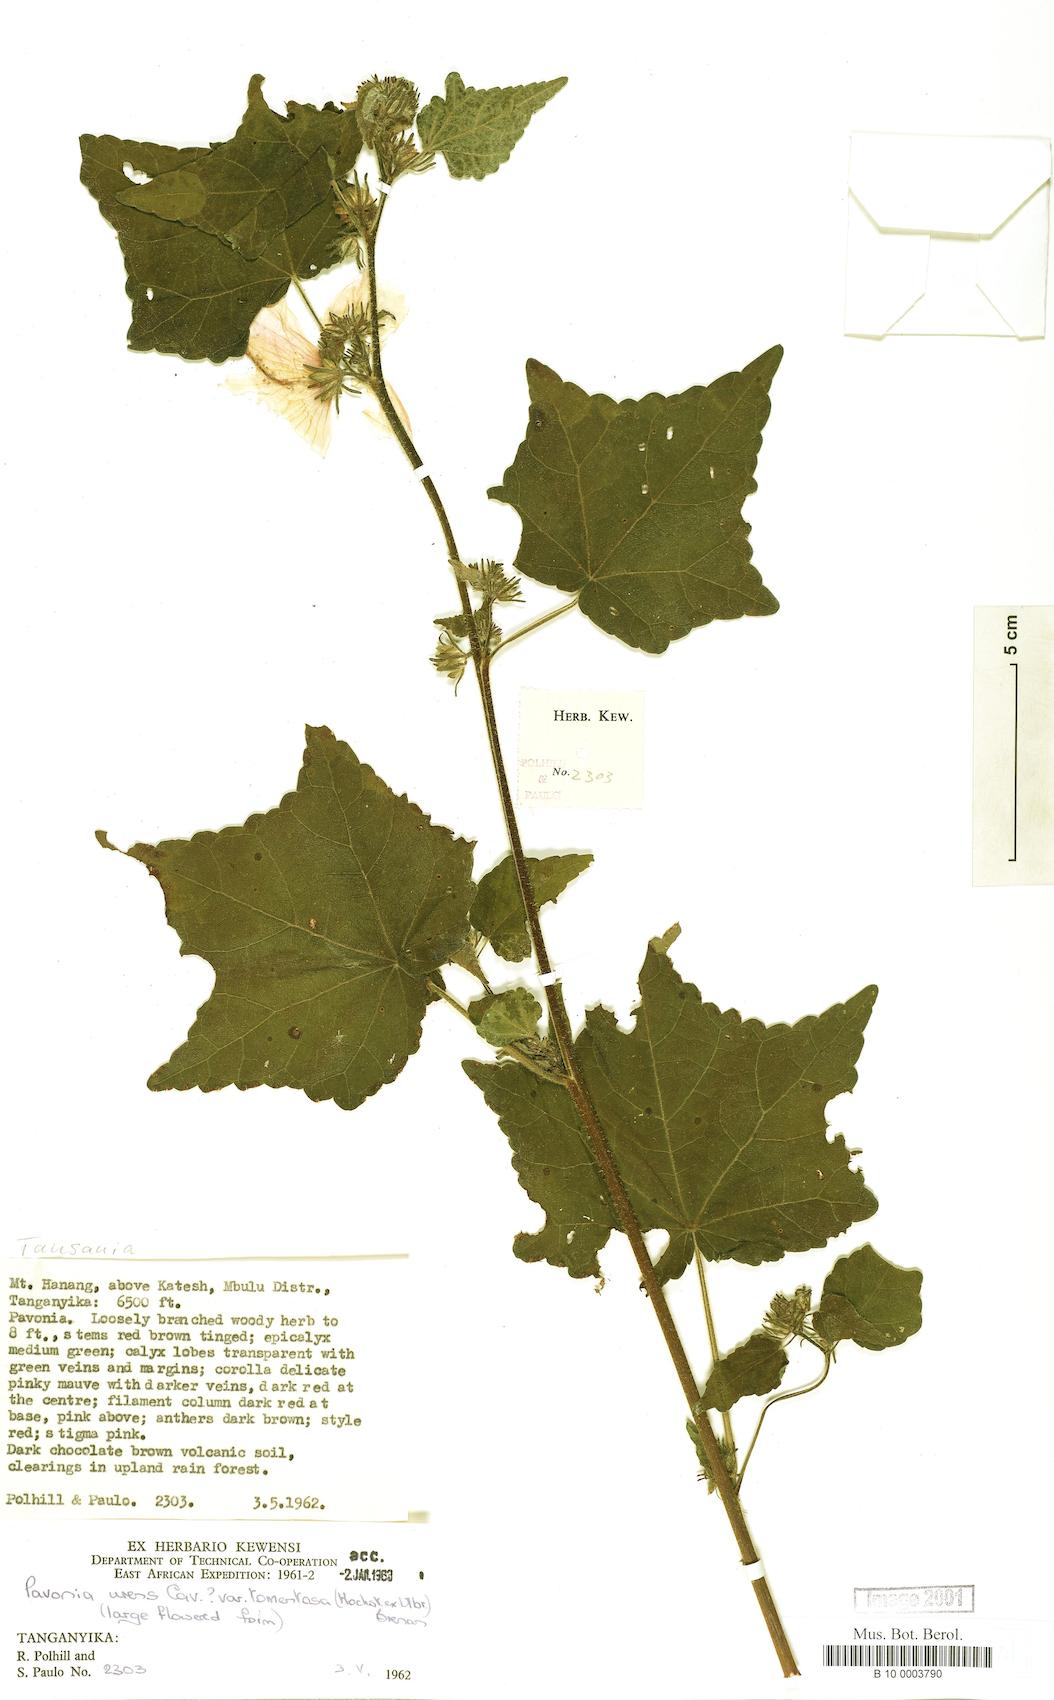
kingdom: Plantae
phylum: Tracheophyta
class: Magnoliopsida
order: Malvales
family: Malvaceae
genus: Pavonia
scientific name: Pavonia urens
